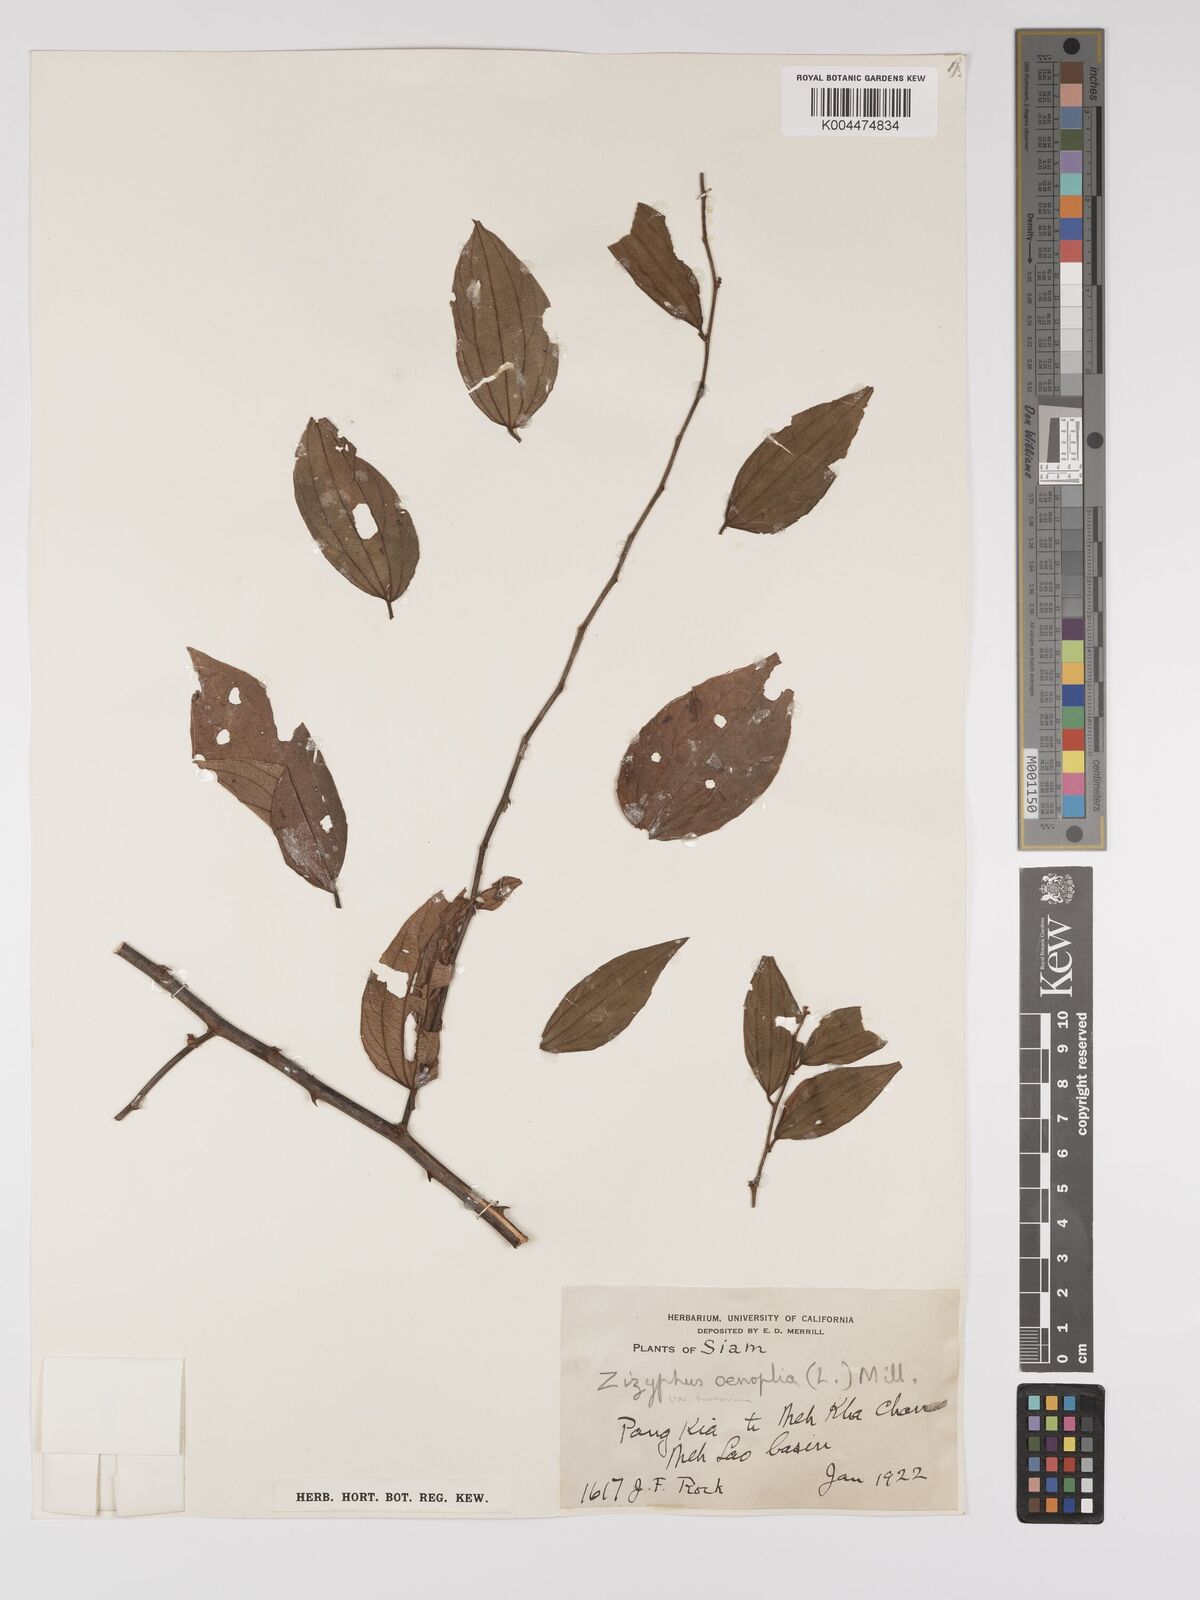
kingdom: Plantae
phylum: Tracheophyta
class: Magnoliopsida
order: Rosales
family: Rhamnaceae
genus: Ziziphus
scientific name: Ziziphus oenopolia
